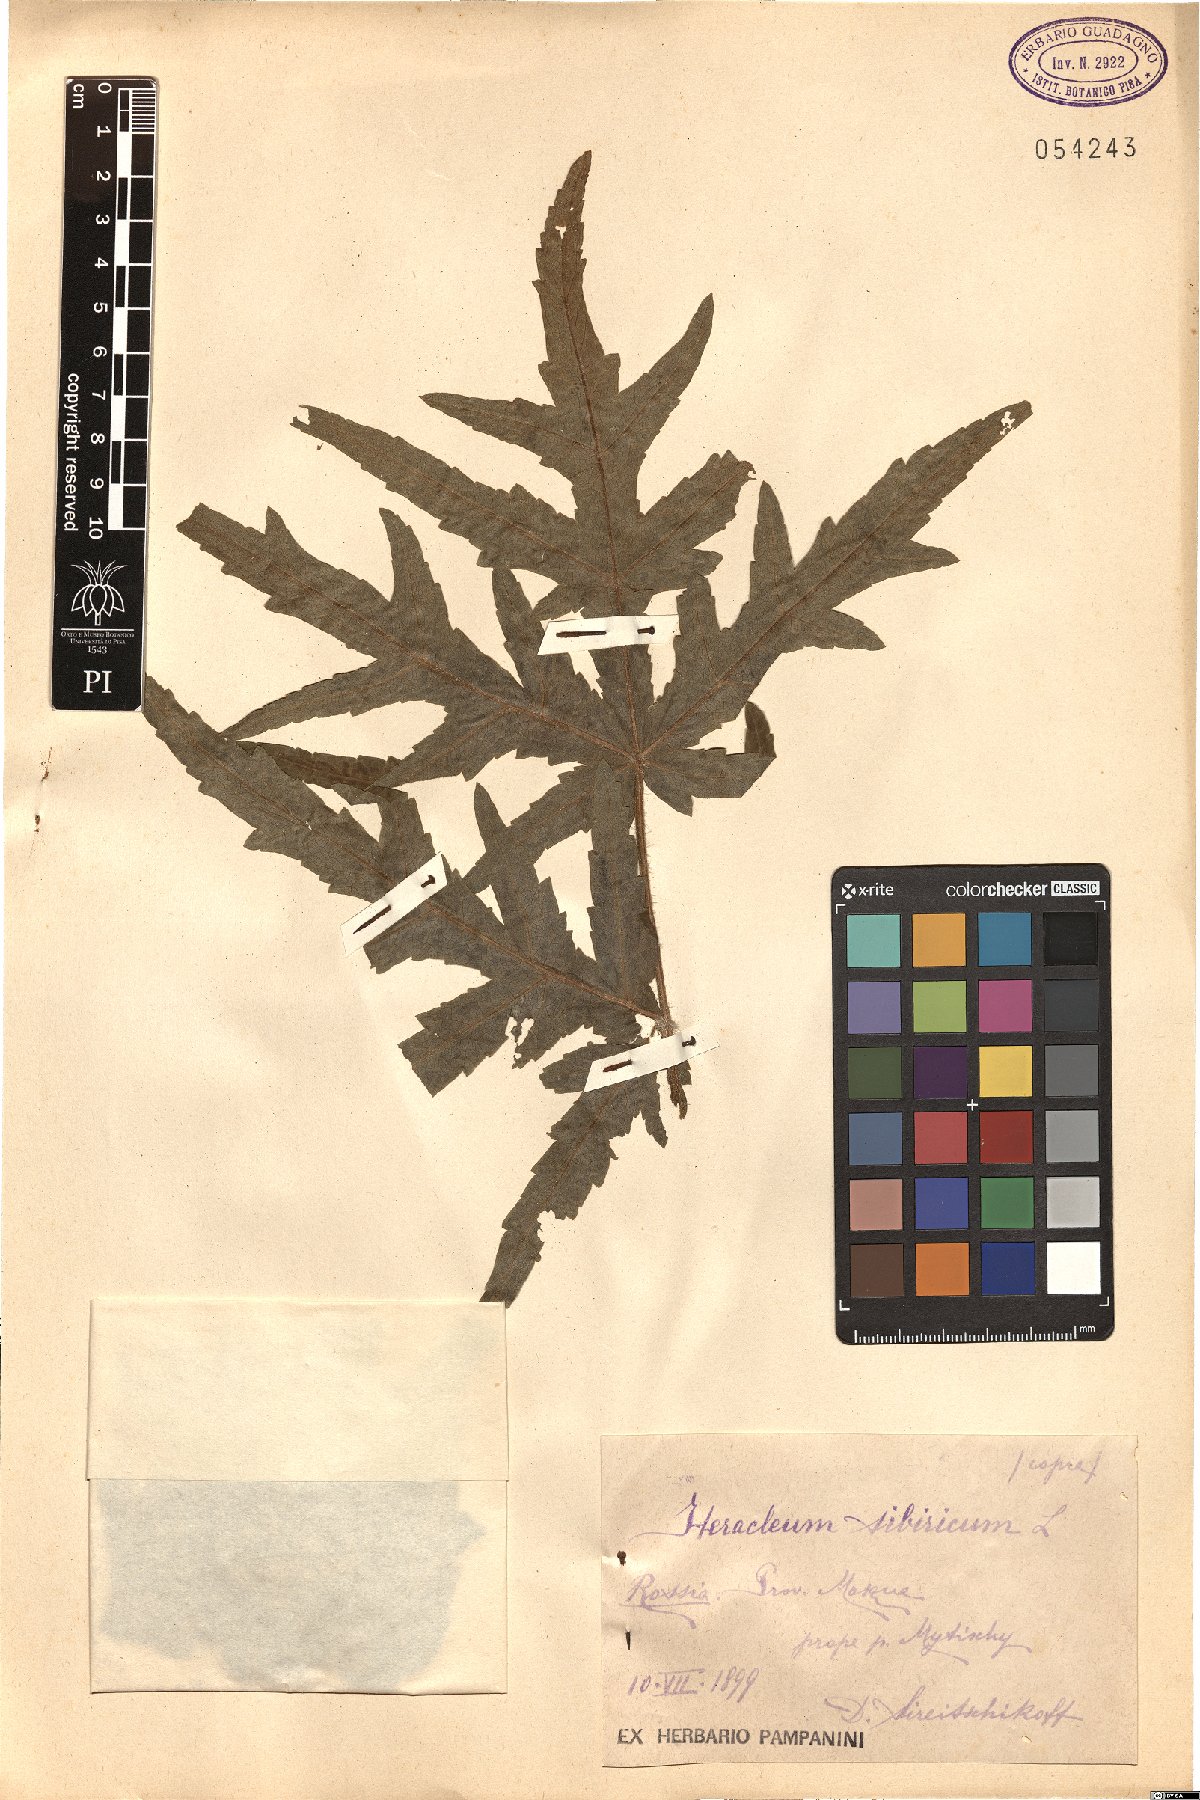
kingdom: Plantae
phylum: Tracheophyta
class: Magnoliopsida
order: Apiales
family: Apiaceae
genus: Heracleum
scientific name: Heracleum sphondylium
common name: Hogweed
